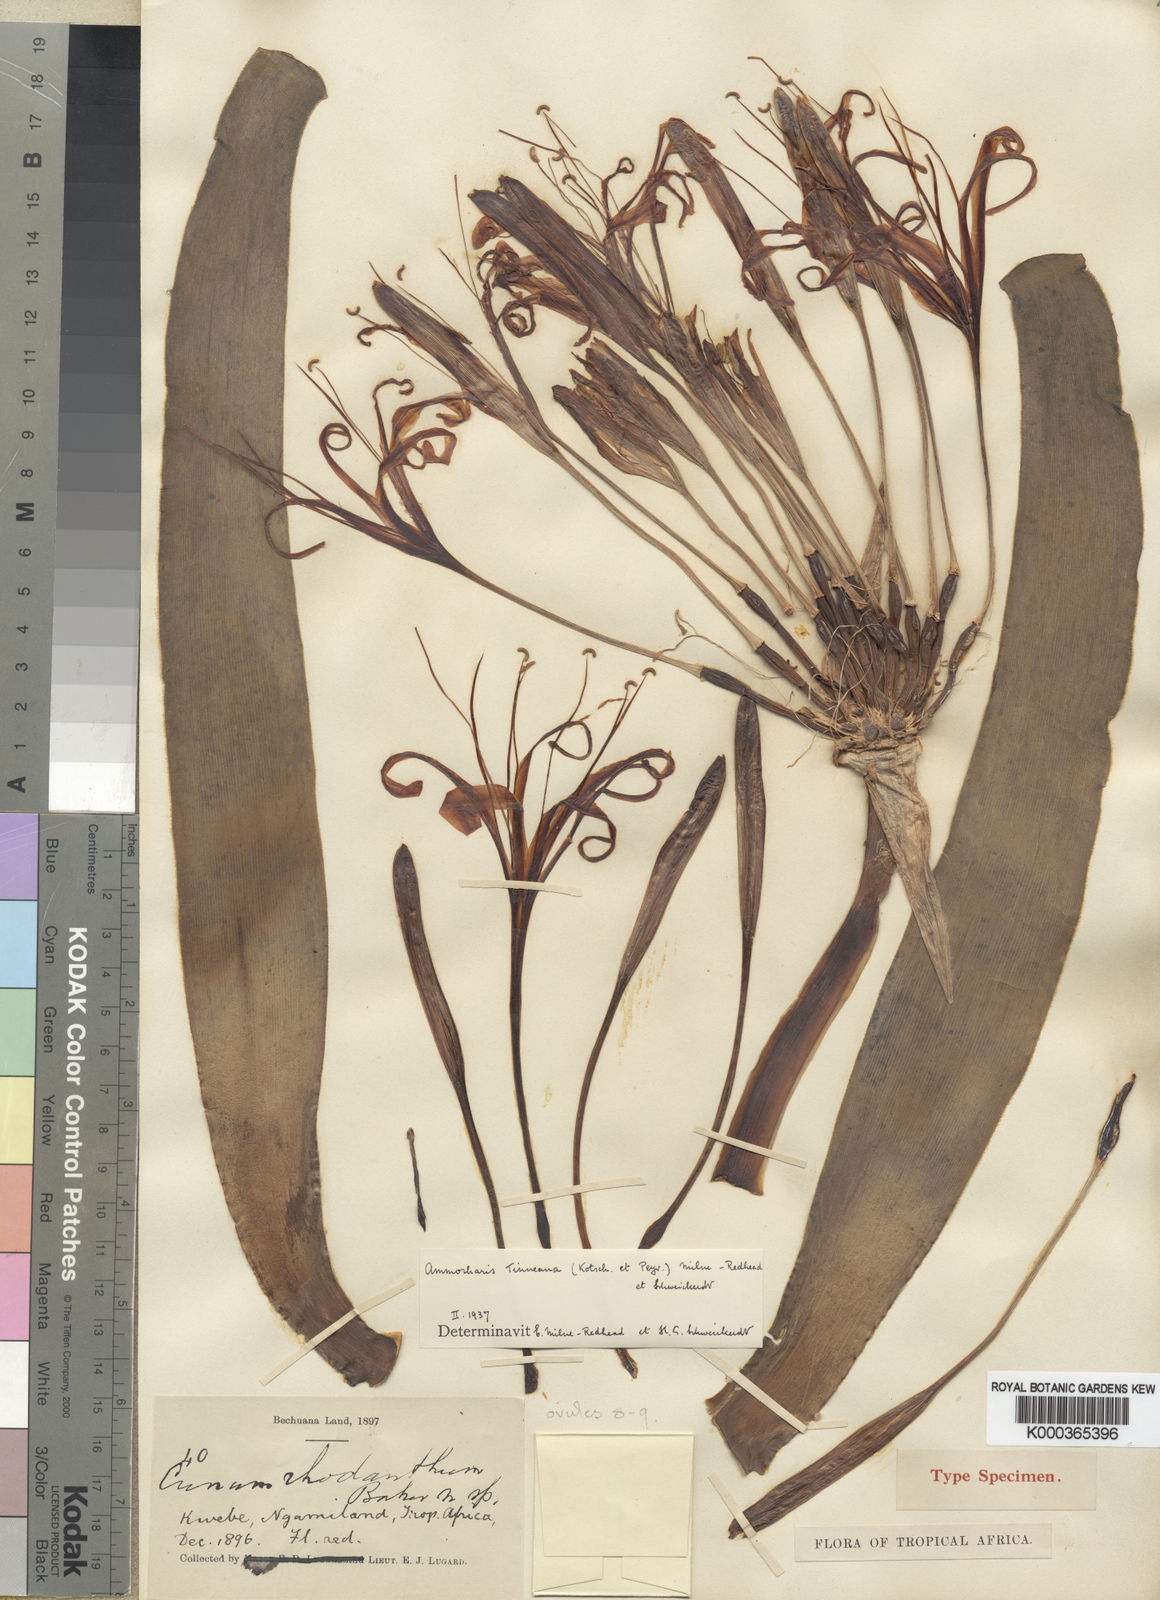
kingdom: Plantae
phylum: Tracheophyta
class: Liliopsida
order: Asparagales
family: Amaryllidaceae
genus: Ammocharis
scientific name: Ammocharis tinneana
